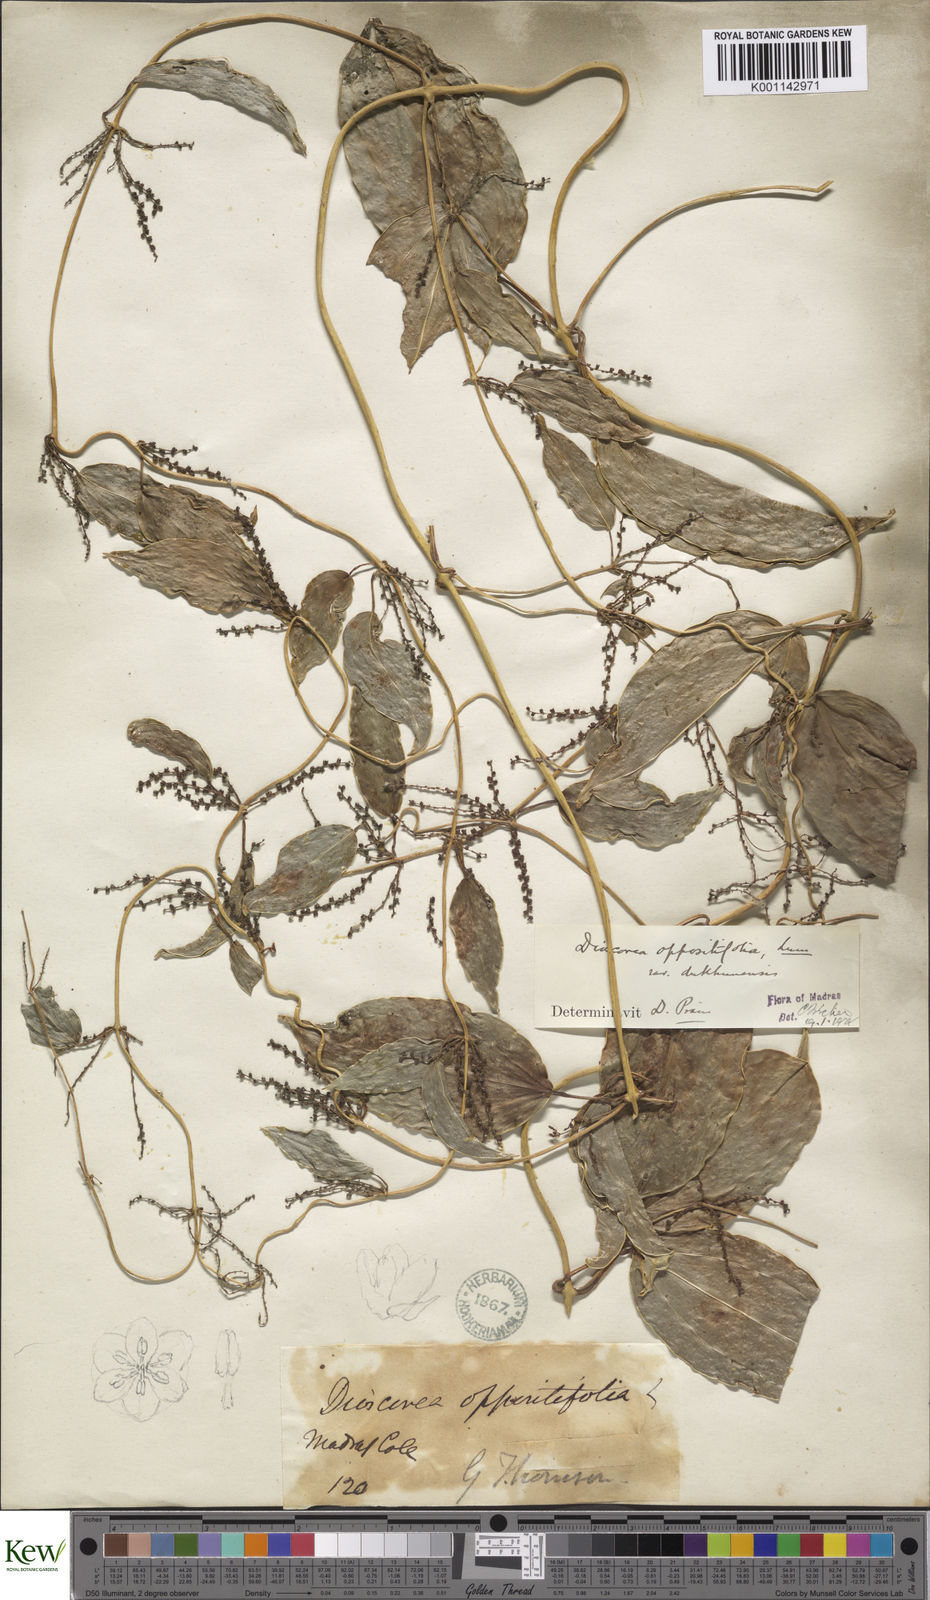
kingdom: Plantae
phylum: Tracheophyta
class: Liliopsida
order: Dioscoreales
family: Dioscoreaceae
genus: Dioscorea
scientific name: Dioscorea oppositifolia
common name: Chinese yam
